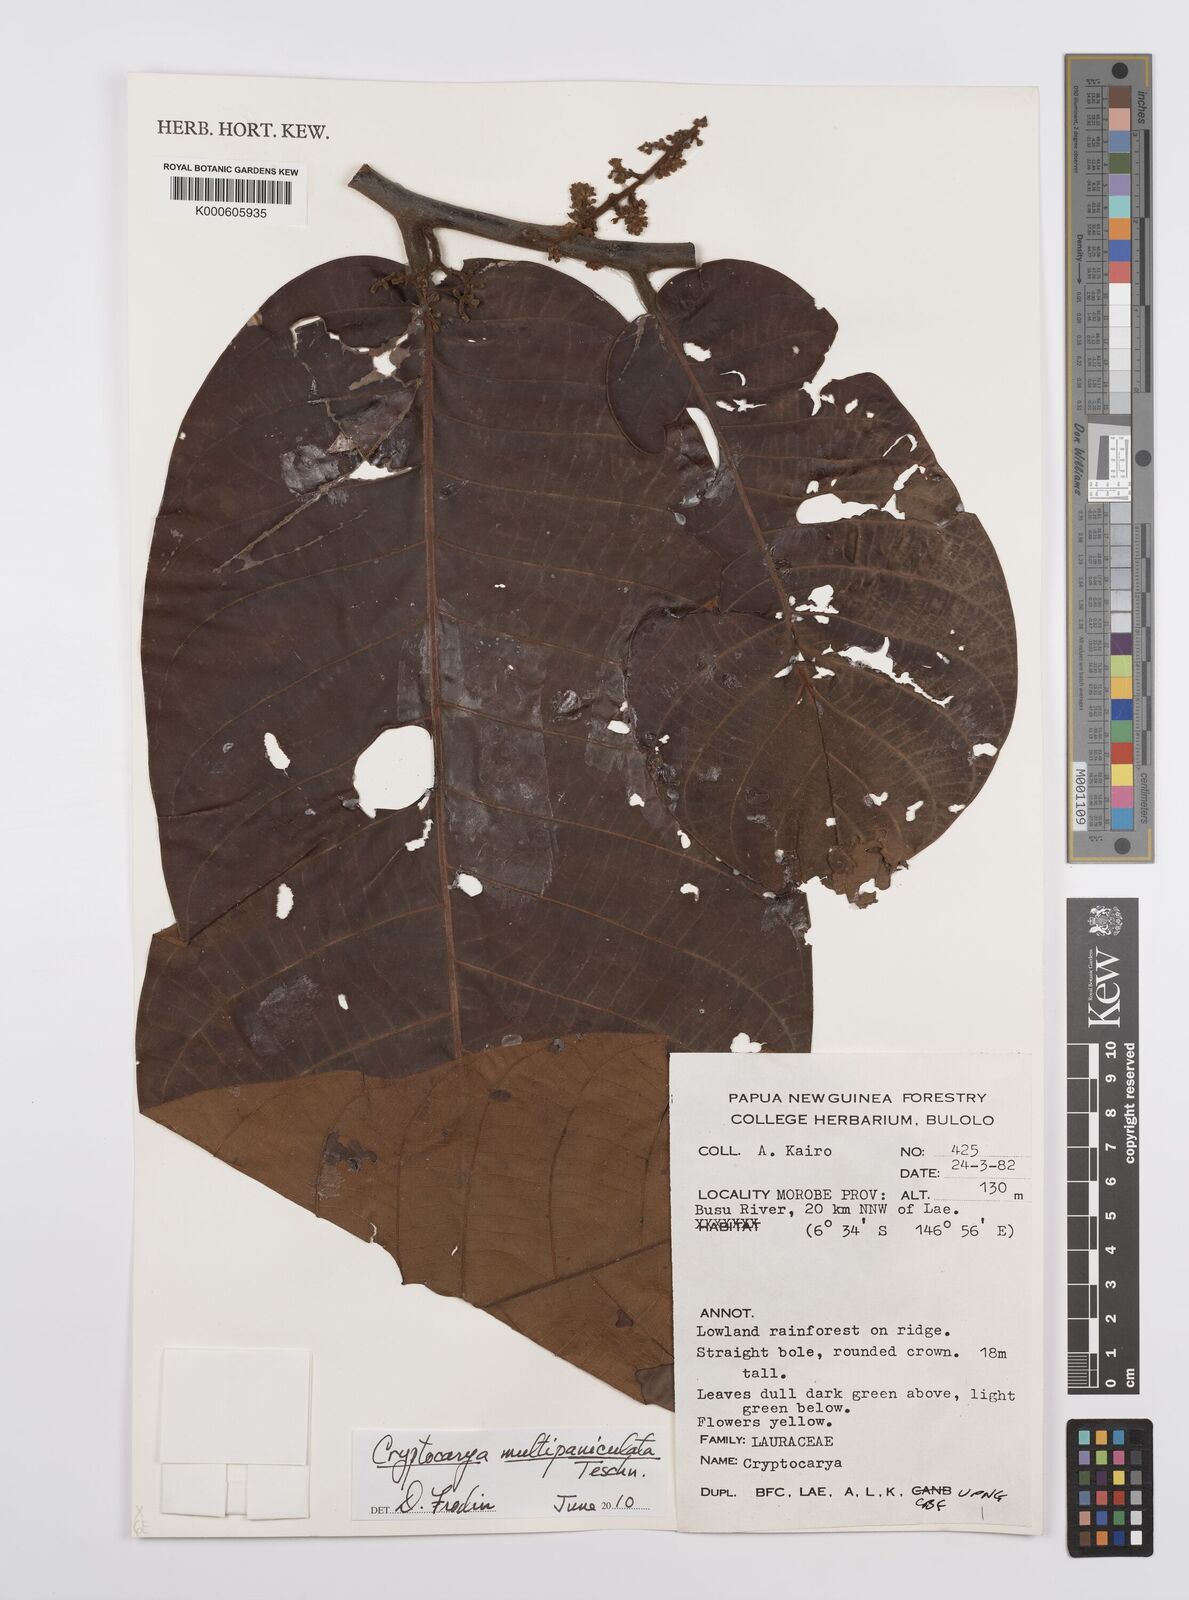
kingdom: Plantae
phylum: Tracheophyta
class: Magnoliopsida
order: Laurales
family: Lauraceae
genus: Cryptocarya
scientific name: Cryptocarya multipaniculata
